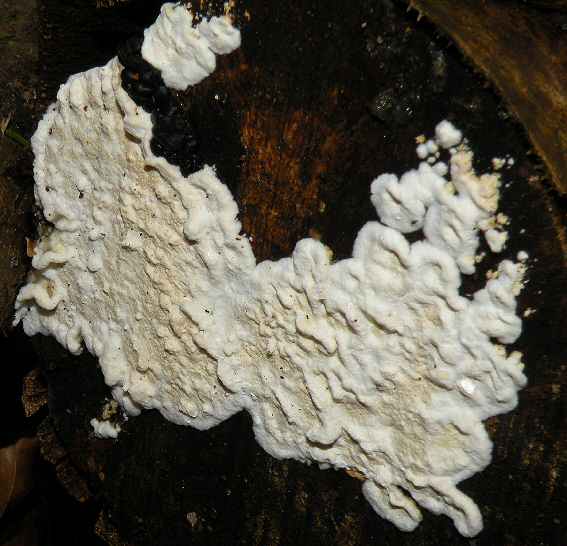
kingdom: Fungi
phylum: Basidiomycota
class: Agaricomycetes
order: Polyporales
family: Irpicaceae
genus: Byssomerulius
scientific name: Byssomerulius corium
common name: læder-åresvamp
